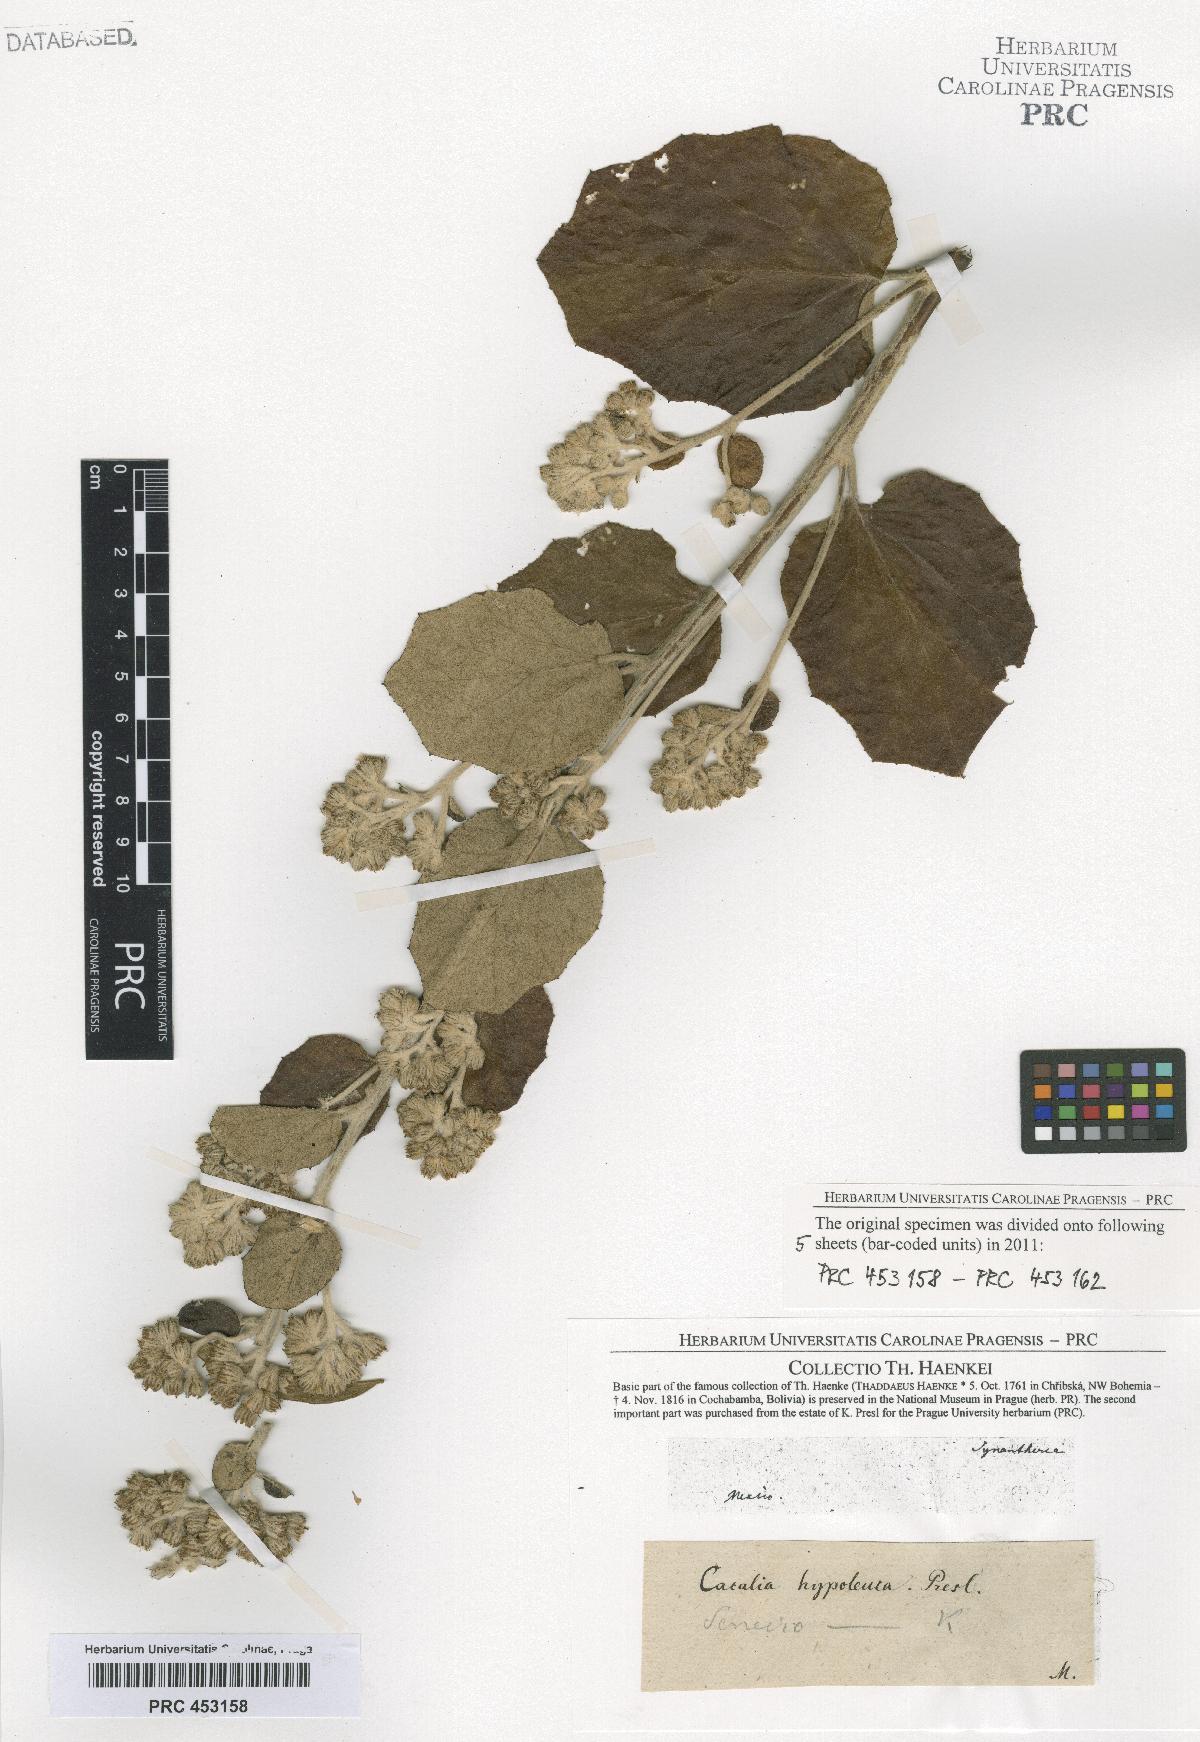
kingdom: Plantae
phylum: Tracheophyta
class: Magnoliopsida
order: Asterales
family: Asteraceae
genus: Senecio
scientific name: Senecio
